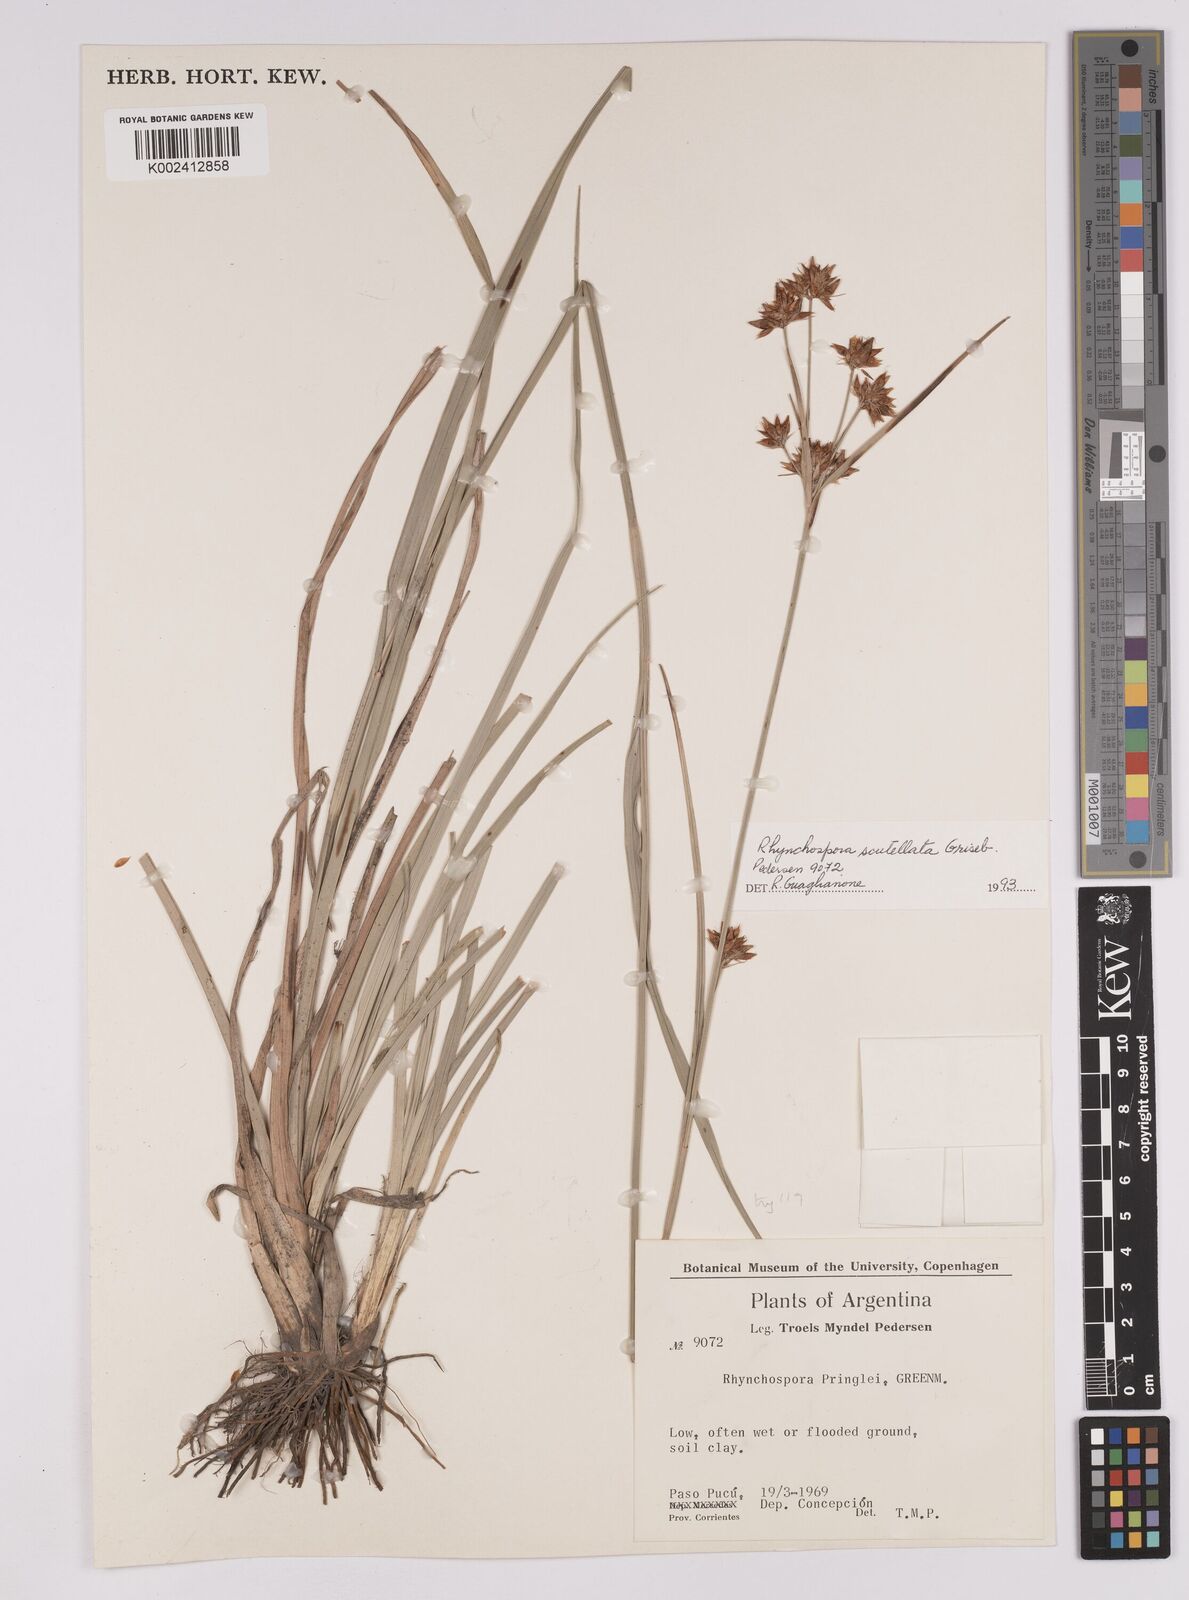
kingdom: Plantae
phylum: Tracheophyta
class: Liliopsida
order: Poales
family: Cyperaceae
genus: Rhynchospora
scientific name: Rhynchospora scutellata
